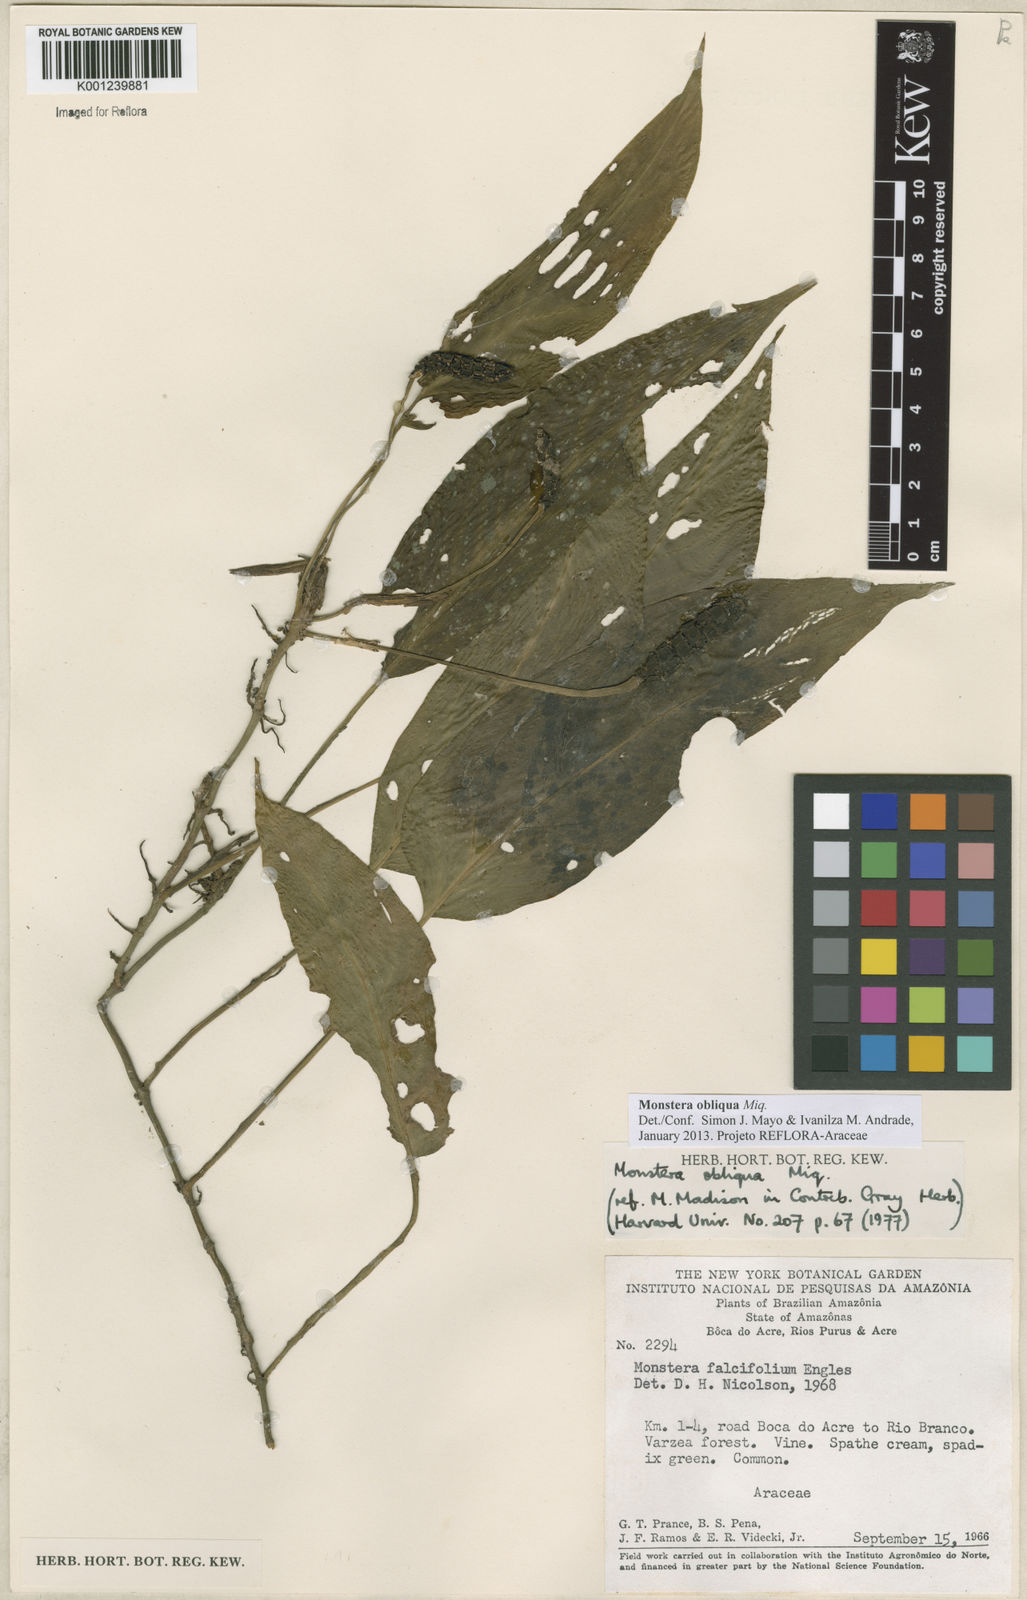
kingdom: Plantae
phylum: Tracheophyta
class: Liliopsida
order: Alismatales
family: Araceae
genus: Monstera
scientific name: Monstera obliqua
